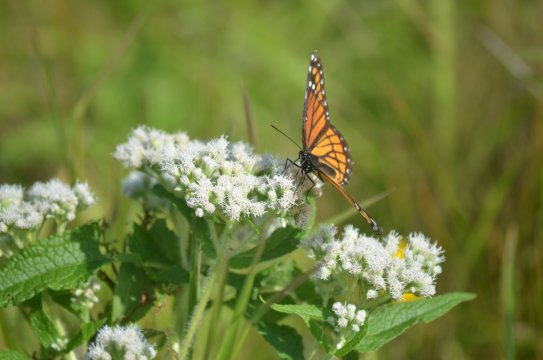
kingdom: Animalia
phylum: Arthropoda
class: Insecta
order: Lepidoptera
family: Nymphalidae
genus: Limenitis
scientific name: Limenitis archippus
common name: Viceroy
